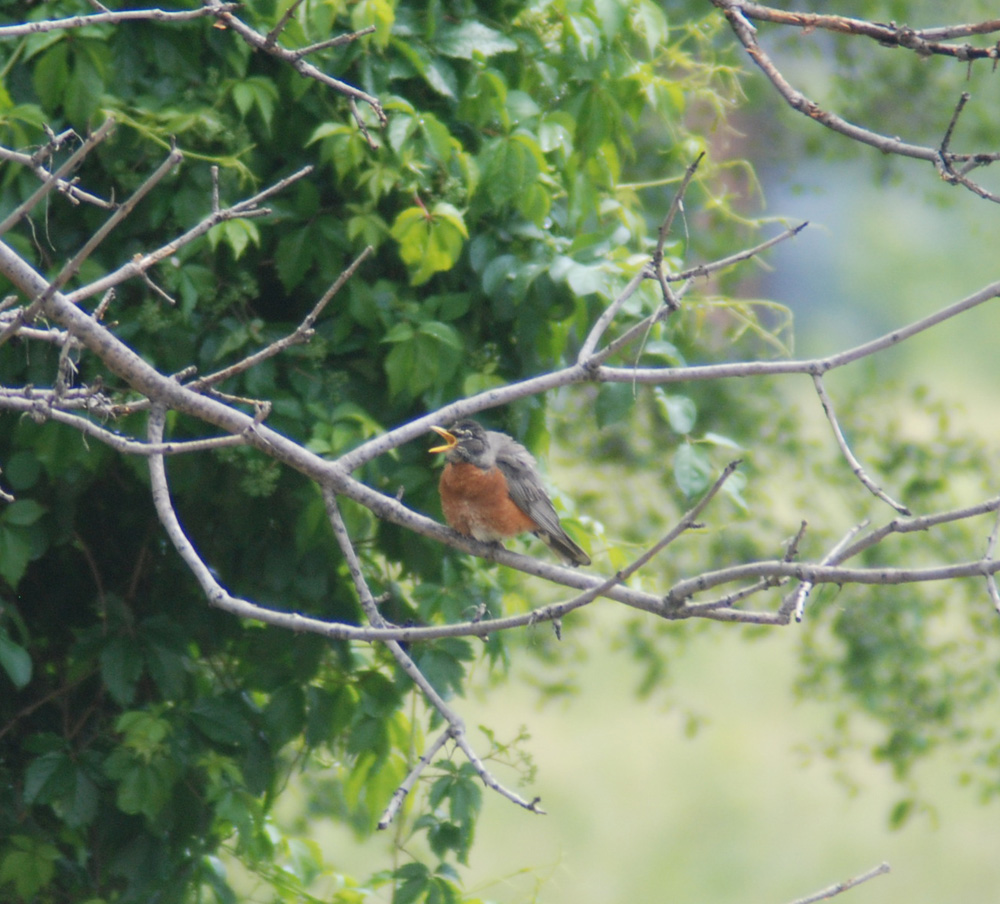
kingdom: Animalia
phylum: Chordata
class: Aves
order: Passeriformes
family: Turdidae
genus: Turdus
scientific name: Turdus migratorius
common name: American robin
